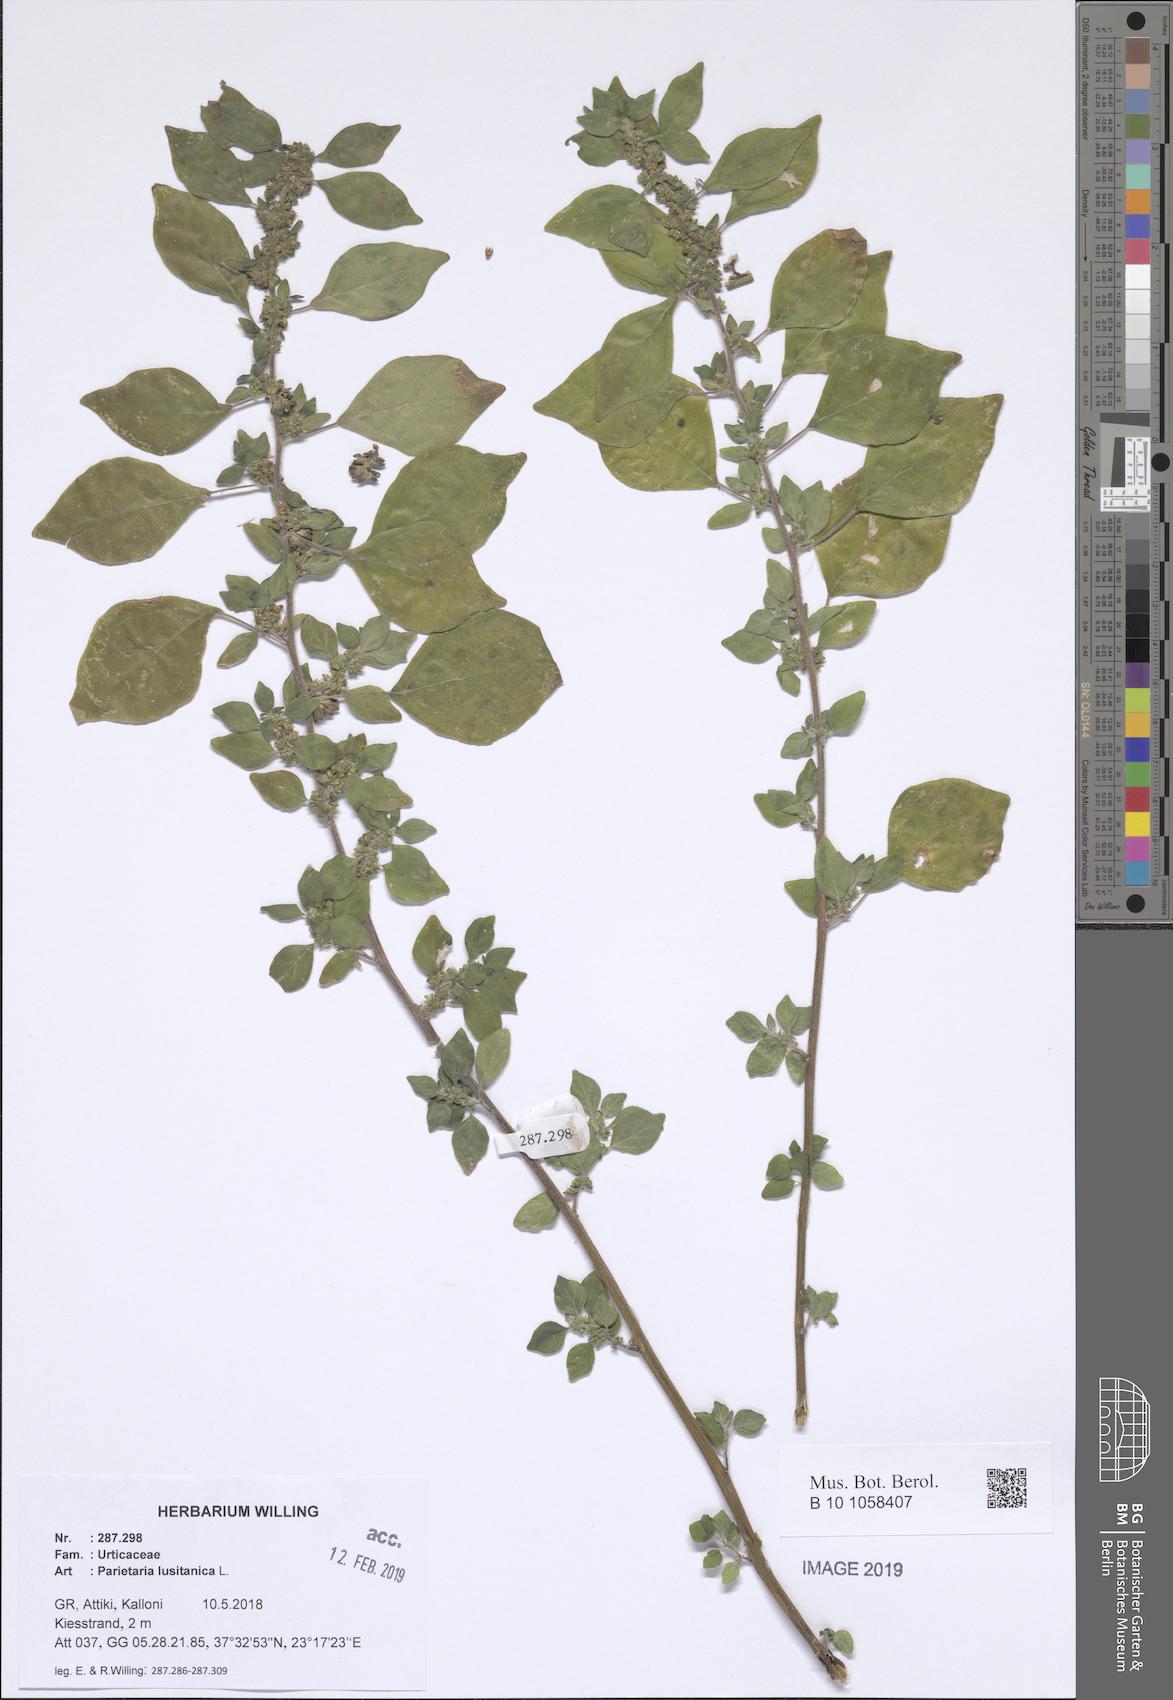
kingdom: Plantae
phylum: Tracheophyta
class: Magnoliopsida
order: Rosales
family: Urticaceae
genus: Parietaria
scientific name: Parietaria lusitanica
